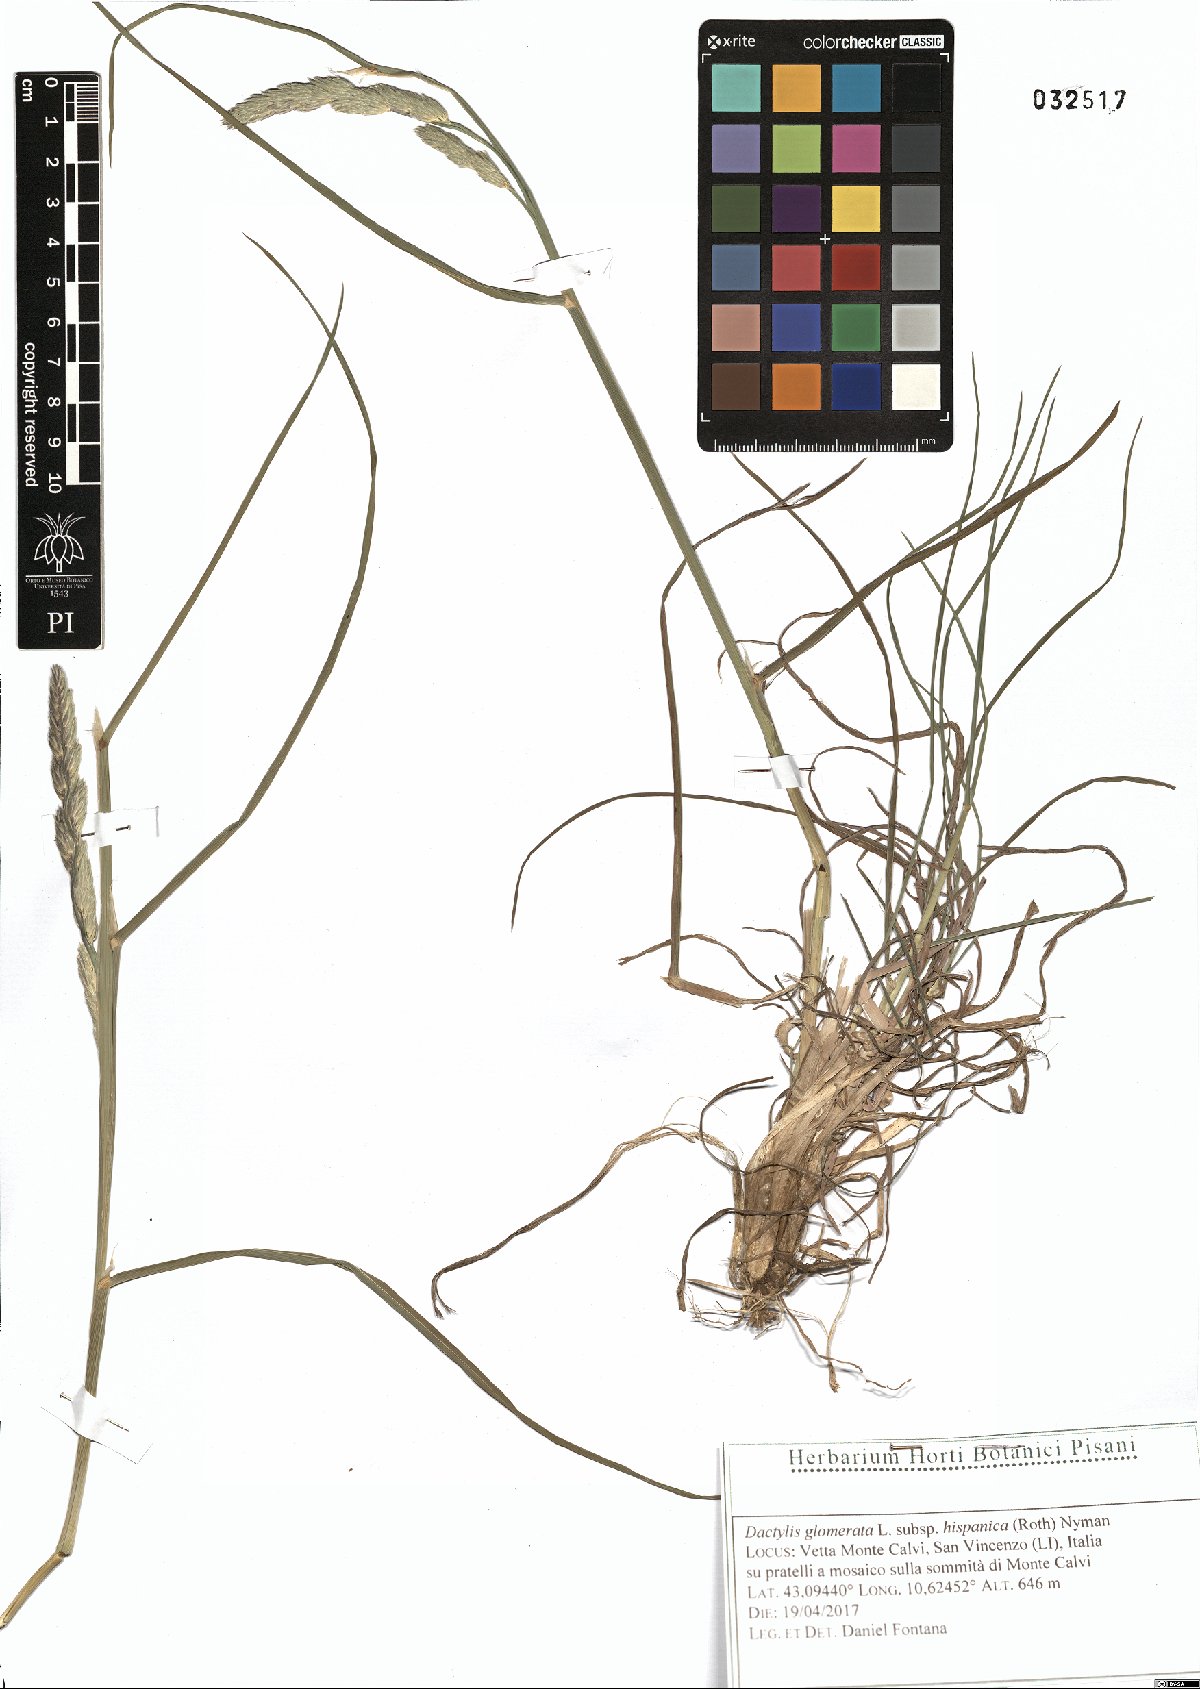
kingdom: Plantae
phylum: Tracheophyta
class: Liliopsida
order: Poales
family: Poaceae
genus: Dactylis
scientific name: Dactylis glomerata
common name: Orchardgrass
